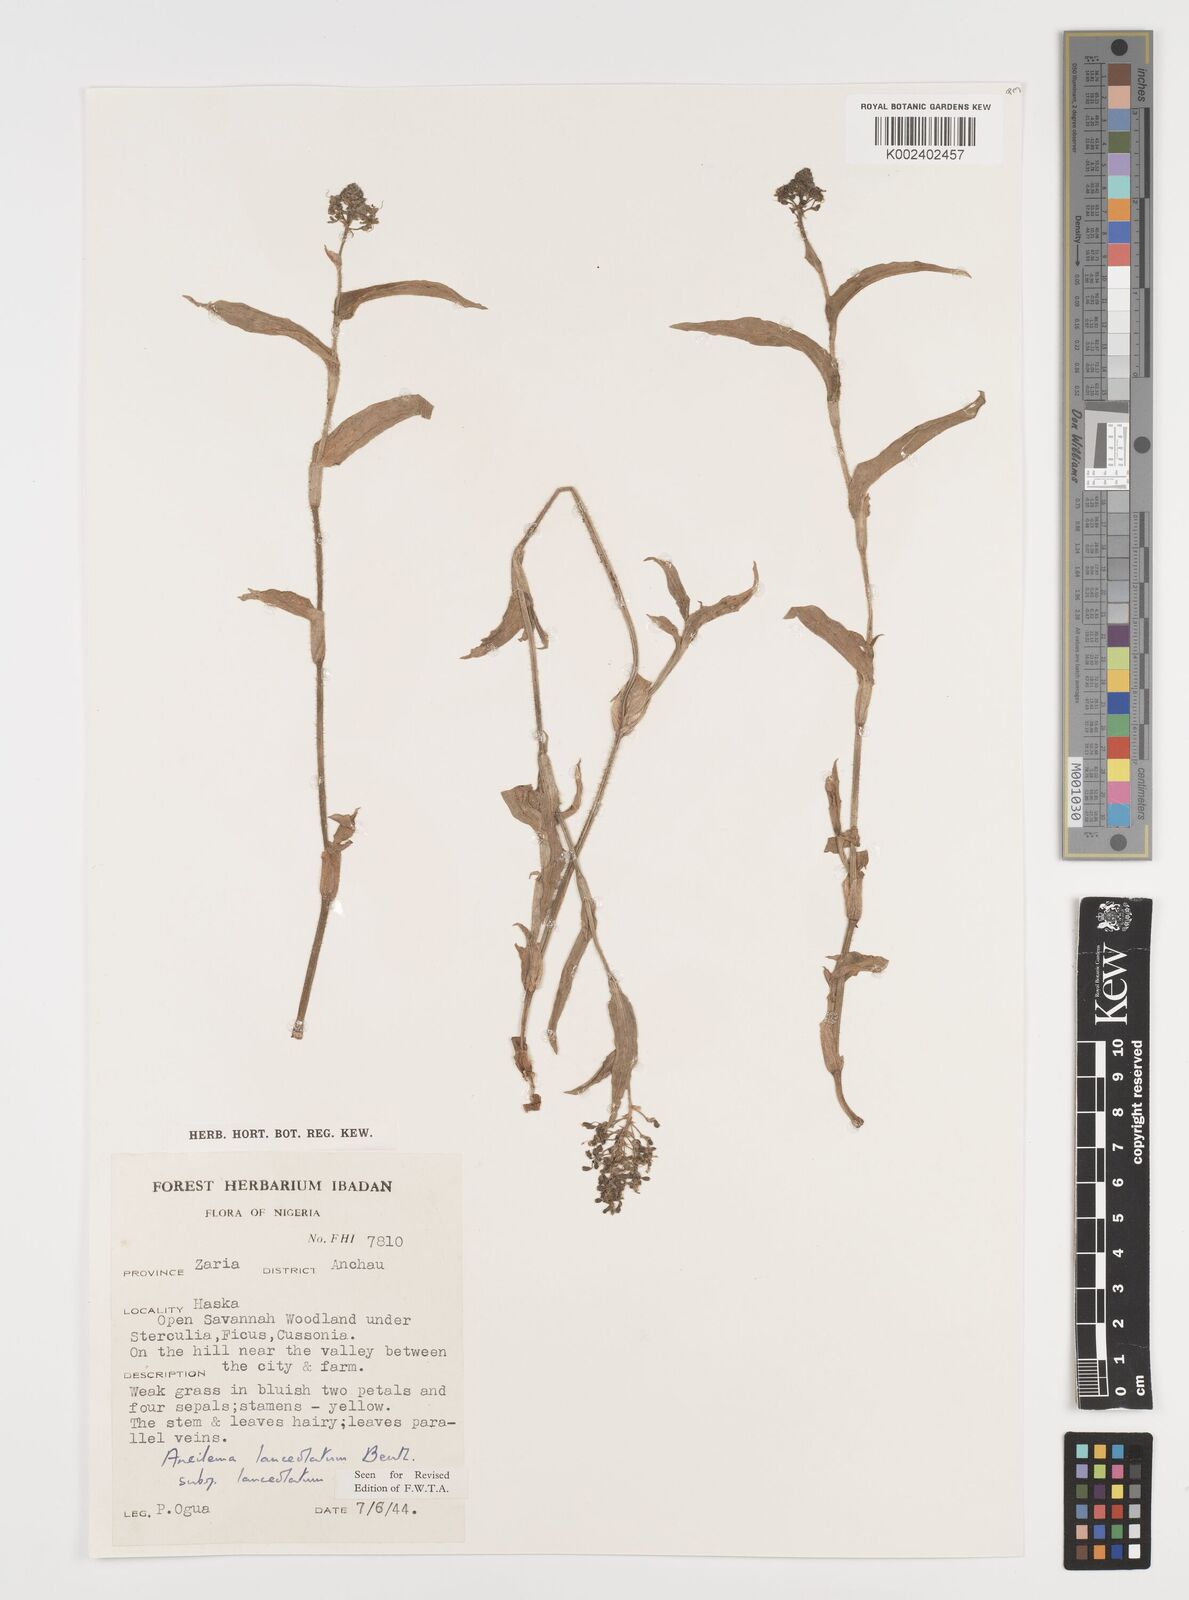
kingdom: Plantae
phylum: Tracheophyta
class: Liliopsida
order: Commelinales
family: Commelinaceae
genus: Aneilema
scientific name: Aneilema lanceolatum
